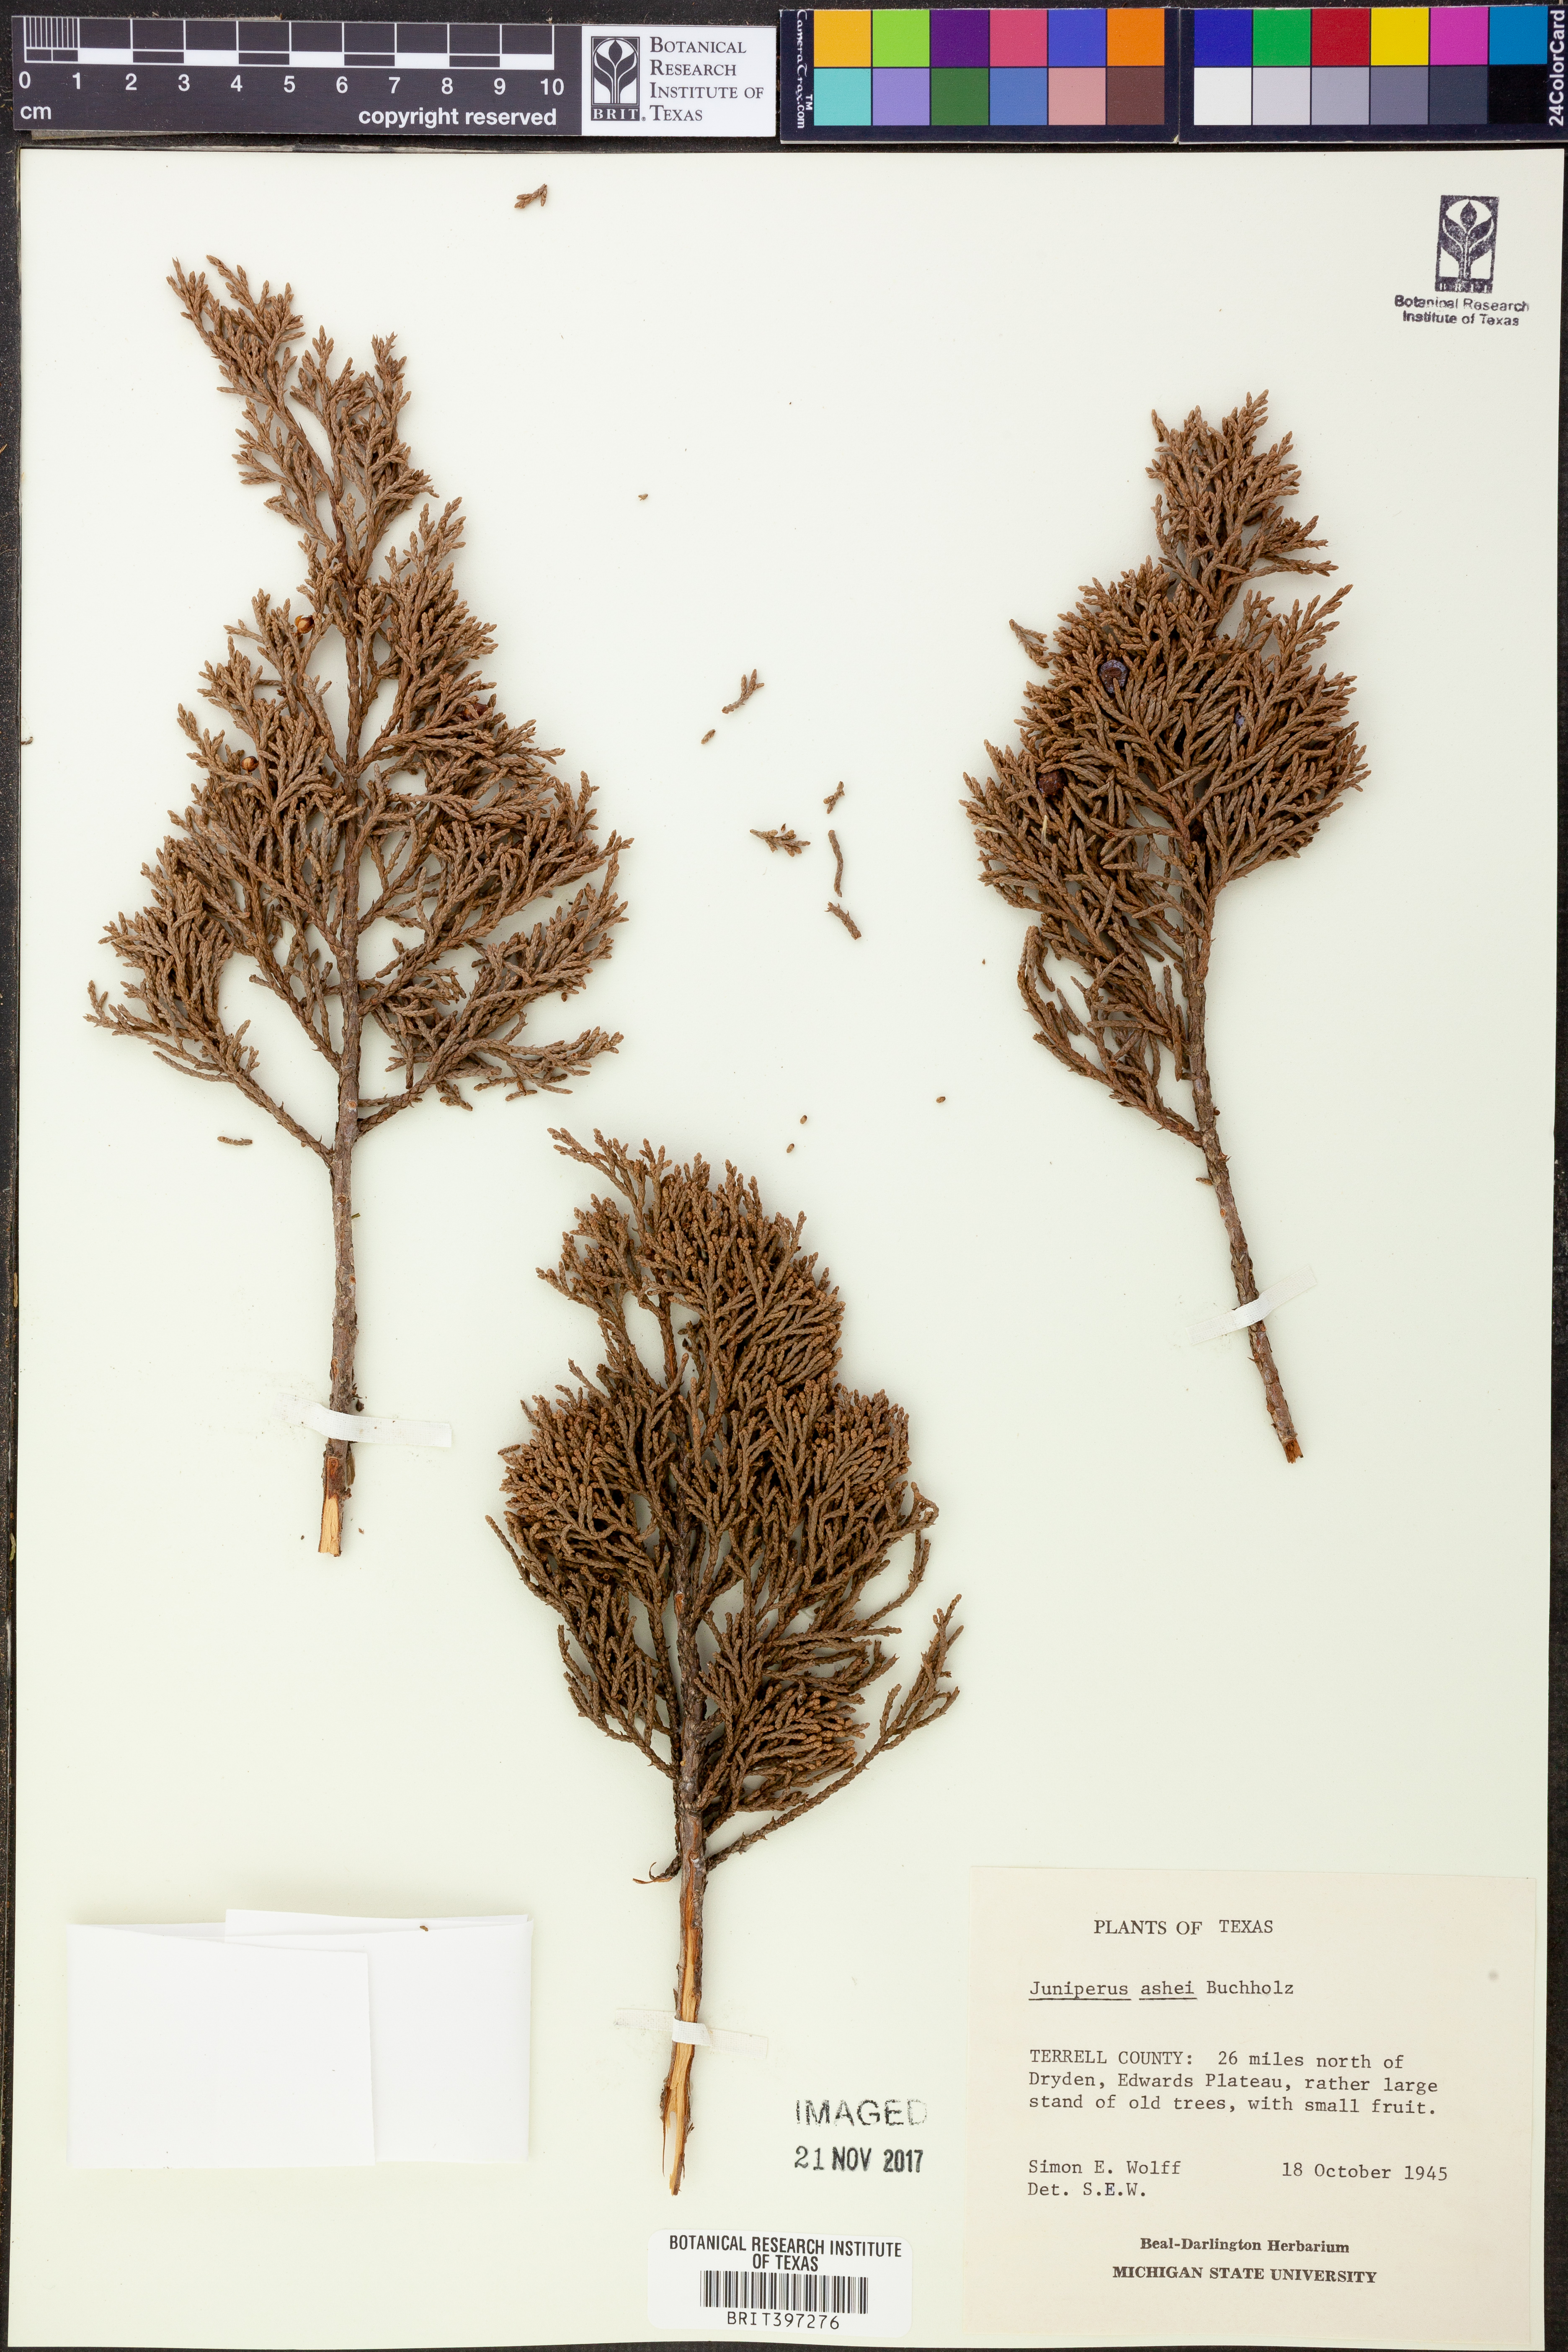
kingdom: Plantae
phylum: Tracheophyta
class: Pinopsida
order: Pinales
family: Cupressaceae
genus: Juniperus
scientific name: Juniperus ashei
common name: Mexican juniper
